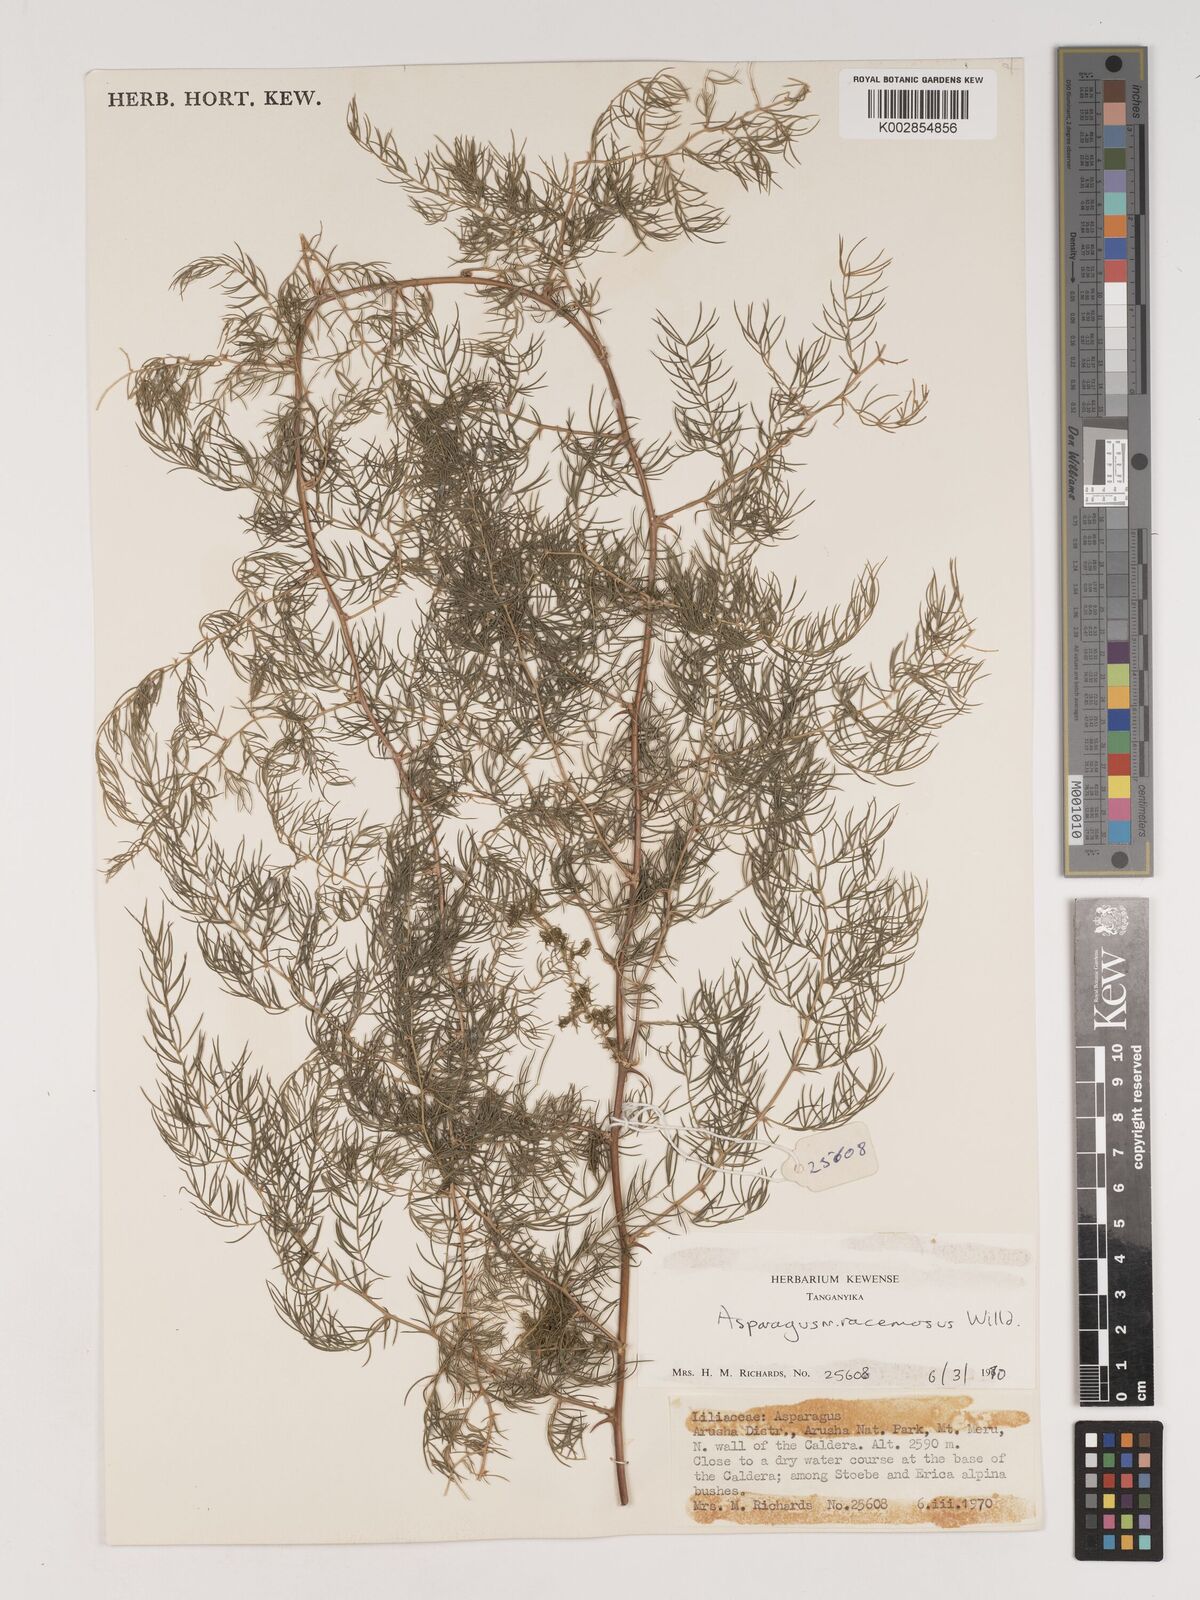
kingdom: Plantae
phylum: Tracheophyta
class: Liliopsida
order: Asparagales
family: Asparagaceae
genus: Asparagus
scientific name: Asparagus racemosus
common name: Asparagus-fern
